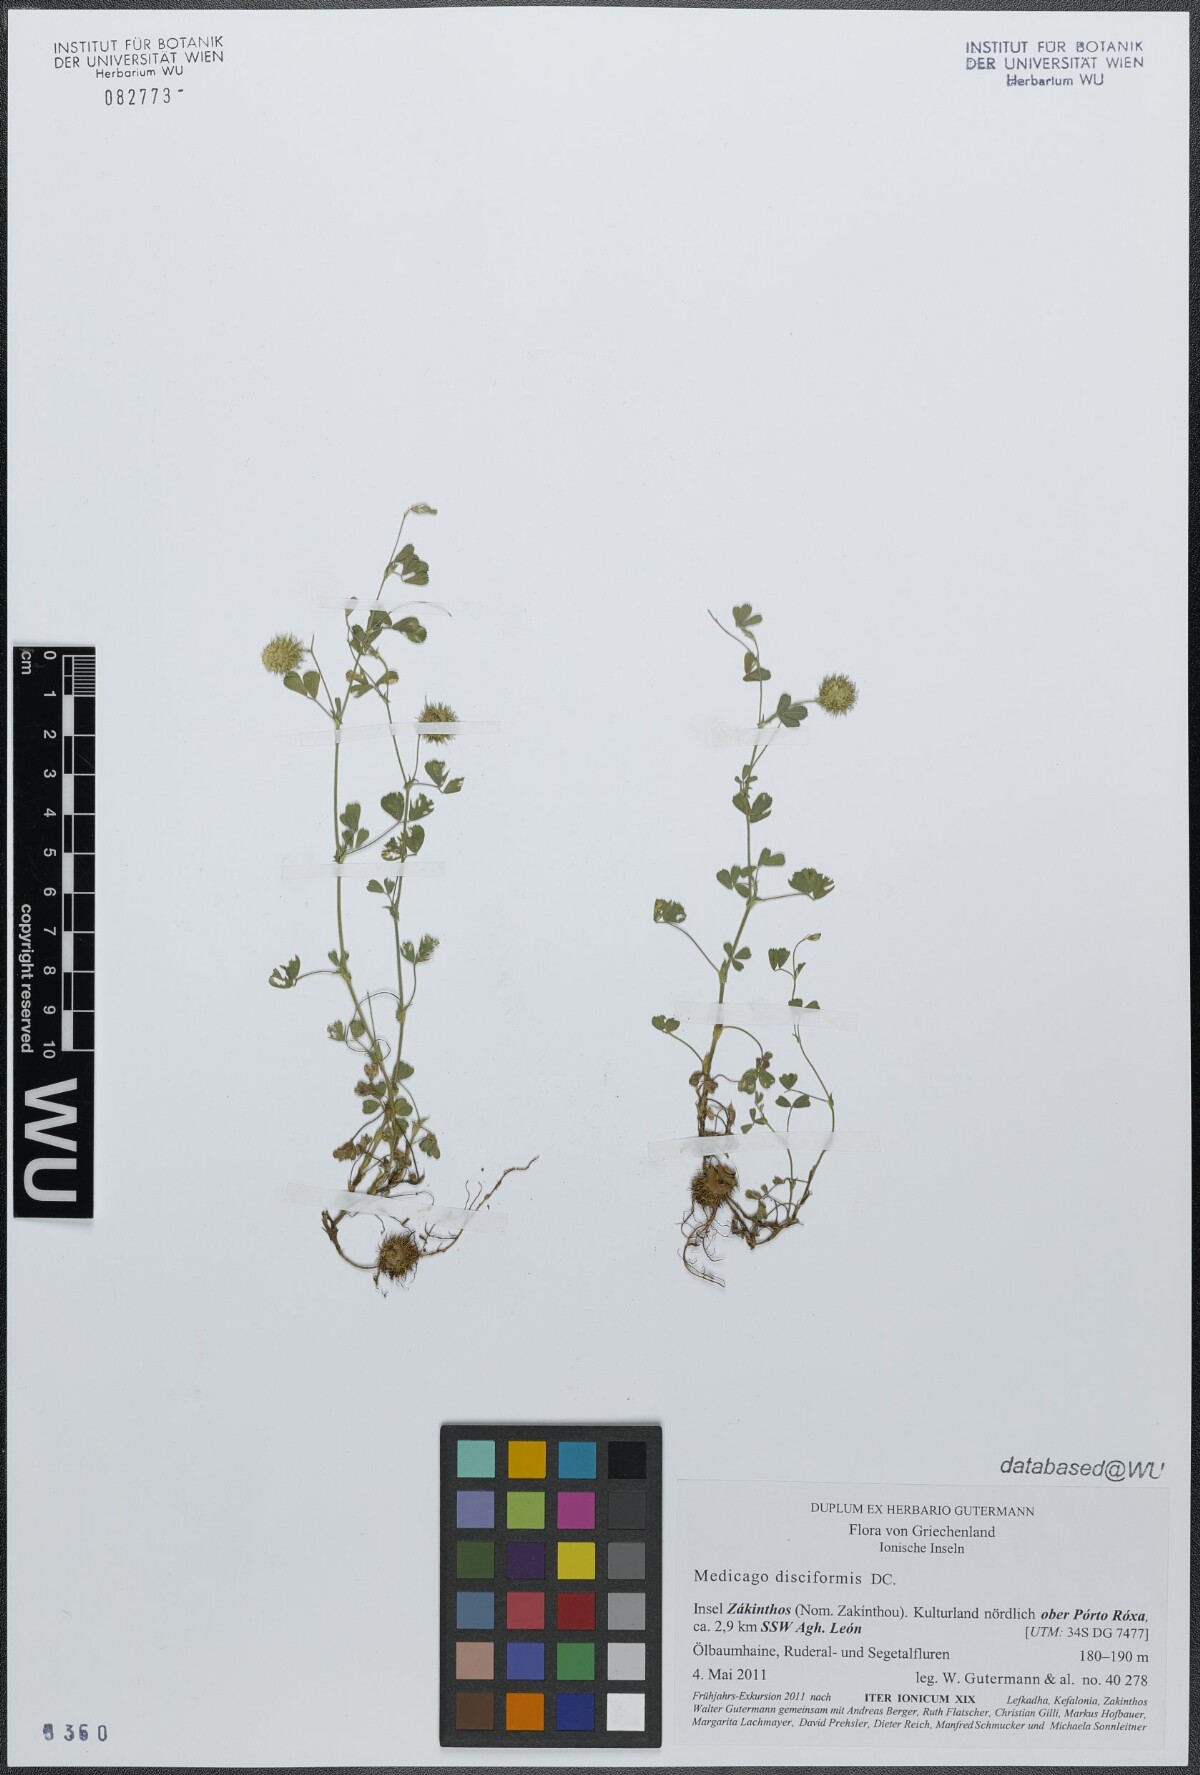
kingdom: Plantae
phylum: Tracheophyta
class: Magnoliopsida
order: Fabales
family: Fabaceae
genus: Medicago
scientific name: Medicago disciformis
